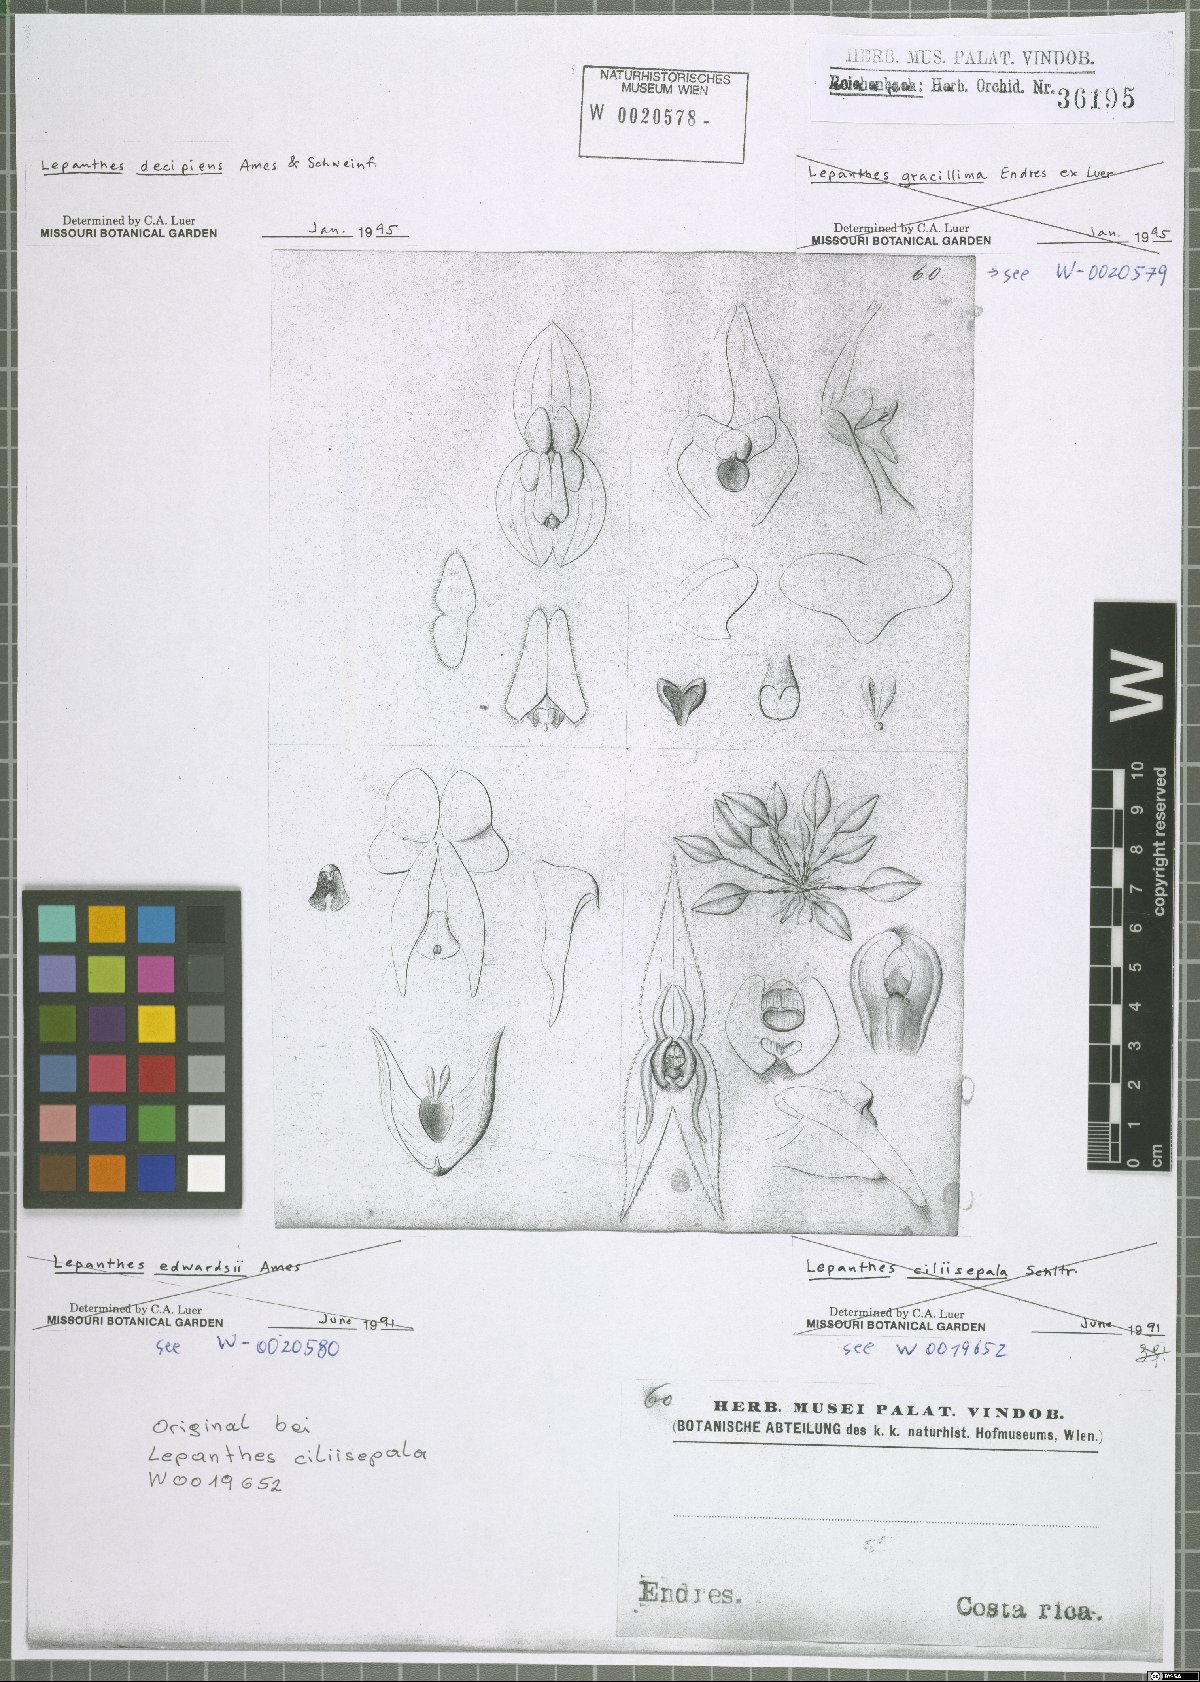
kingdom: Plantae
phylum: Tracheophyta
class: Liliopsida
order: Asparagales
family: Orchidaceae
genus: Lepanthes
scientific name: Lepanthes decipiens
